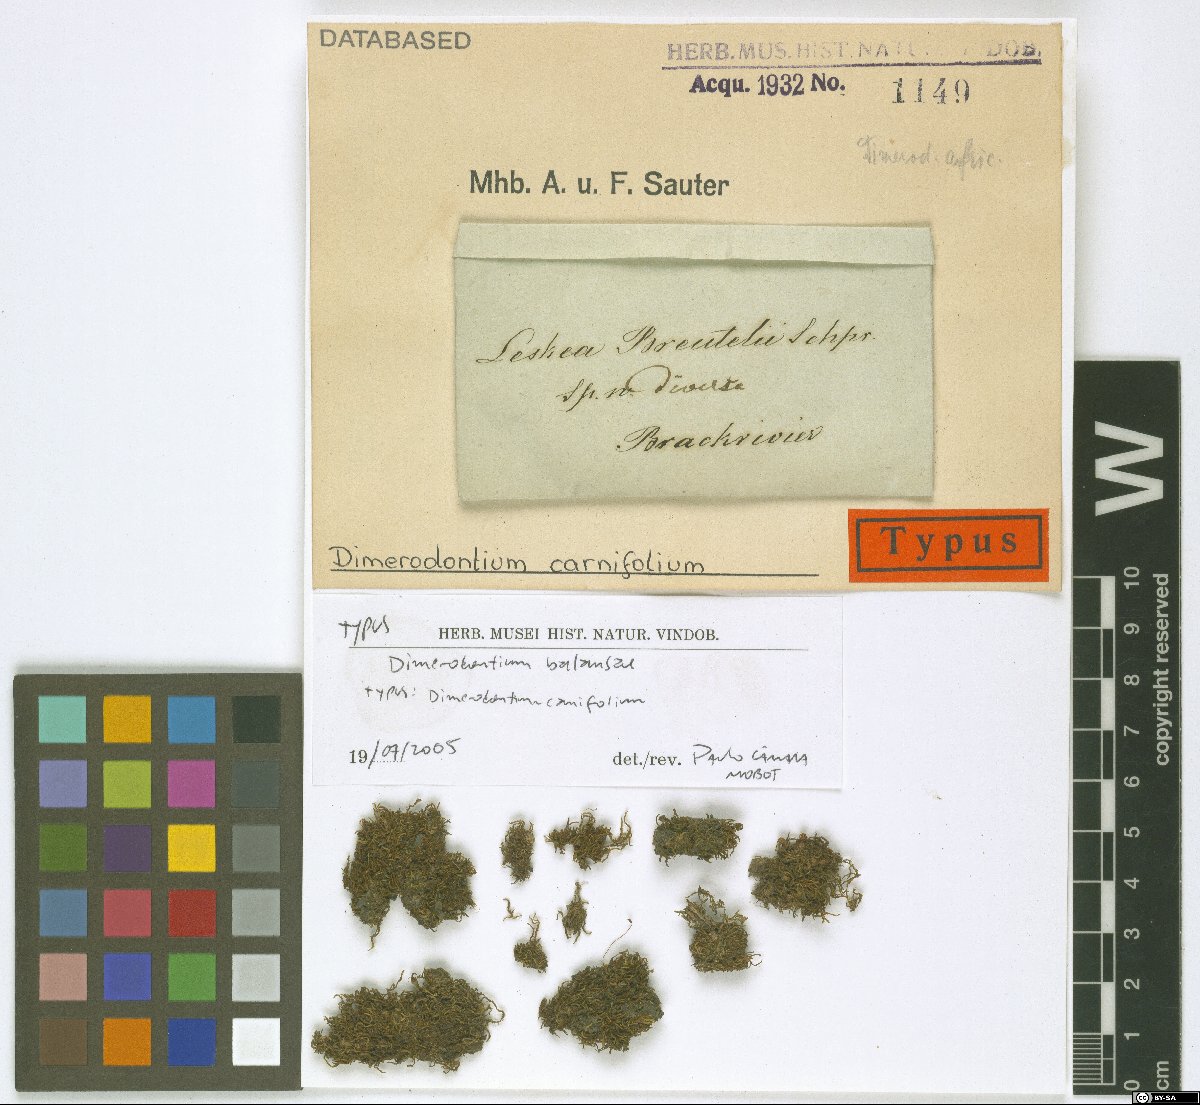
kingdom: Plantae
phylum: Bryophyta
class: Bryopsida
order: Hypnales
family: Fabroniaceae
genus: Dimerodontium
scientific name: Dimerodontium balansae
